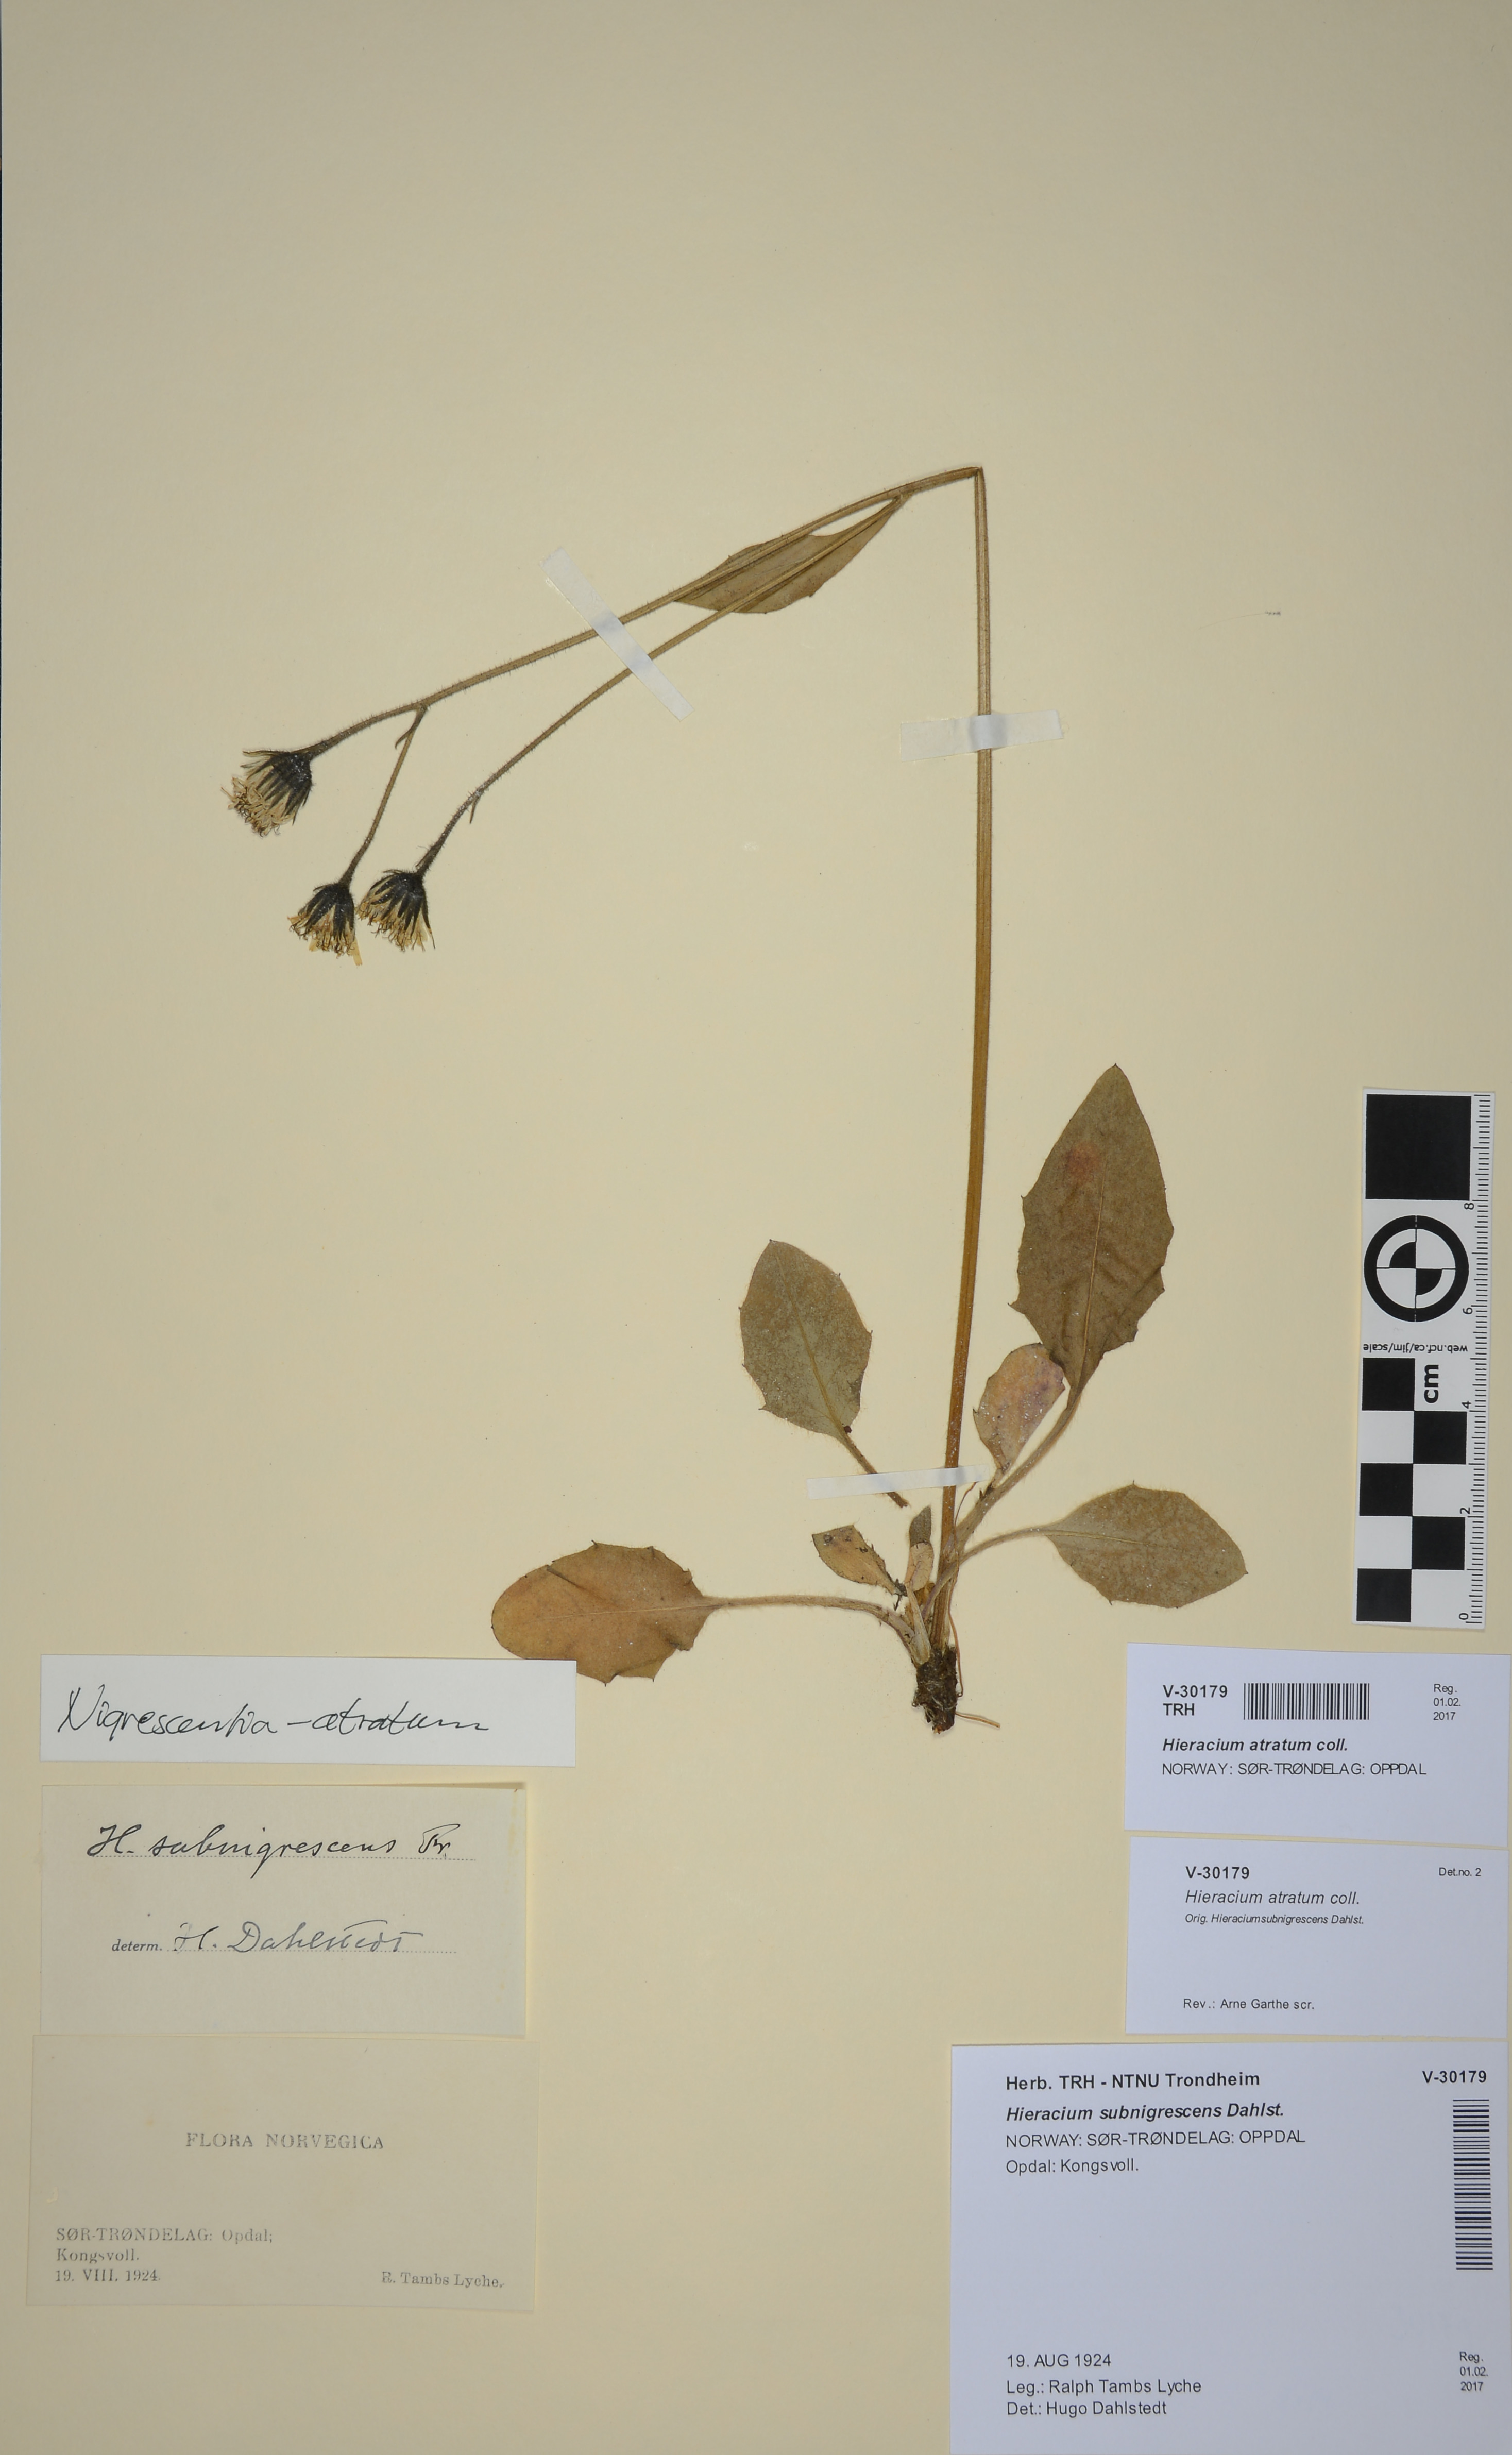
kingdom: Plantae
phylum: Tracheophyta
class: Magnoliopsida
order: Asterales
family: Asteraceae
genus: Hieracium
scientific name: Hieracium atratum
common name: Polar hawkweed
